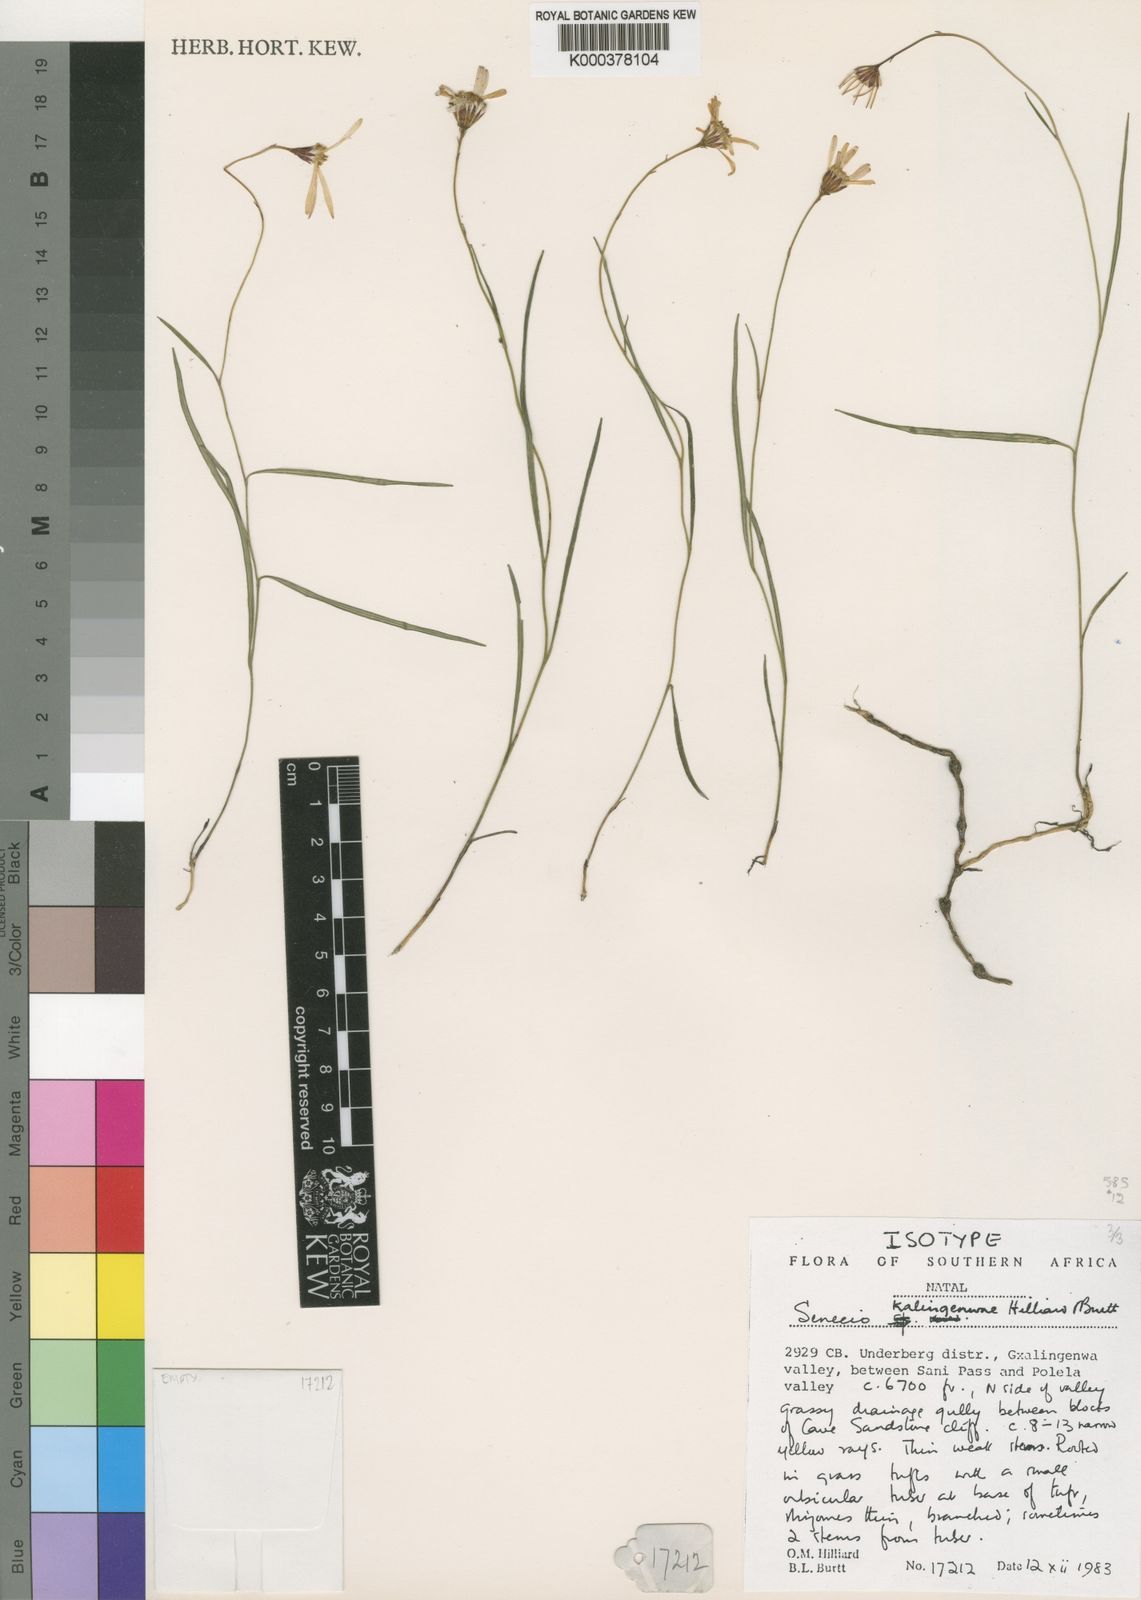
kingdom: Plantae
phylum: Tracheophyta
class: Magnoliopsida
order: Asterales
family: Asteraceae
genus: Senecio
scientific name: Senecio kalingenwae
